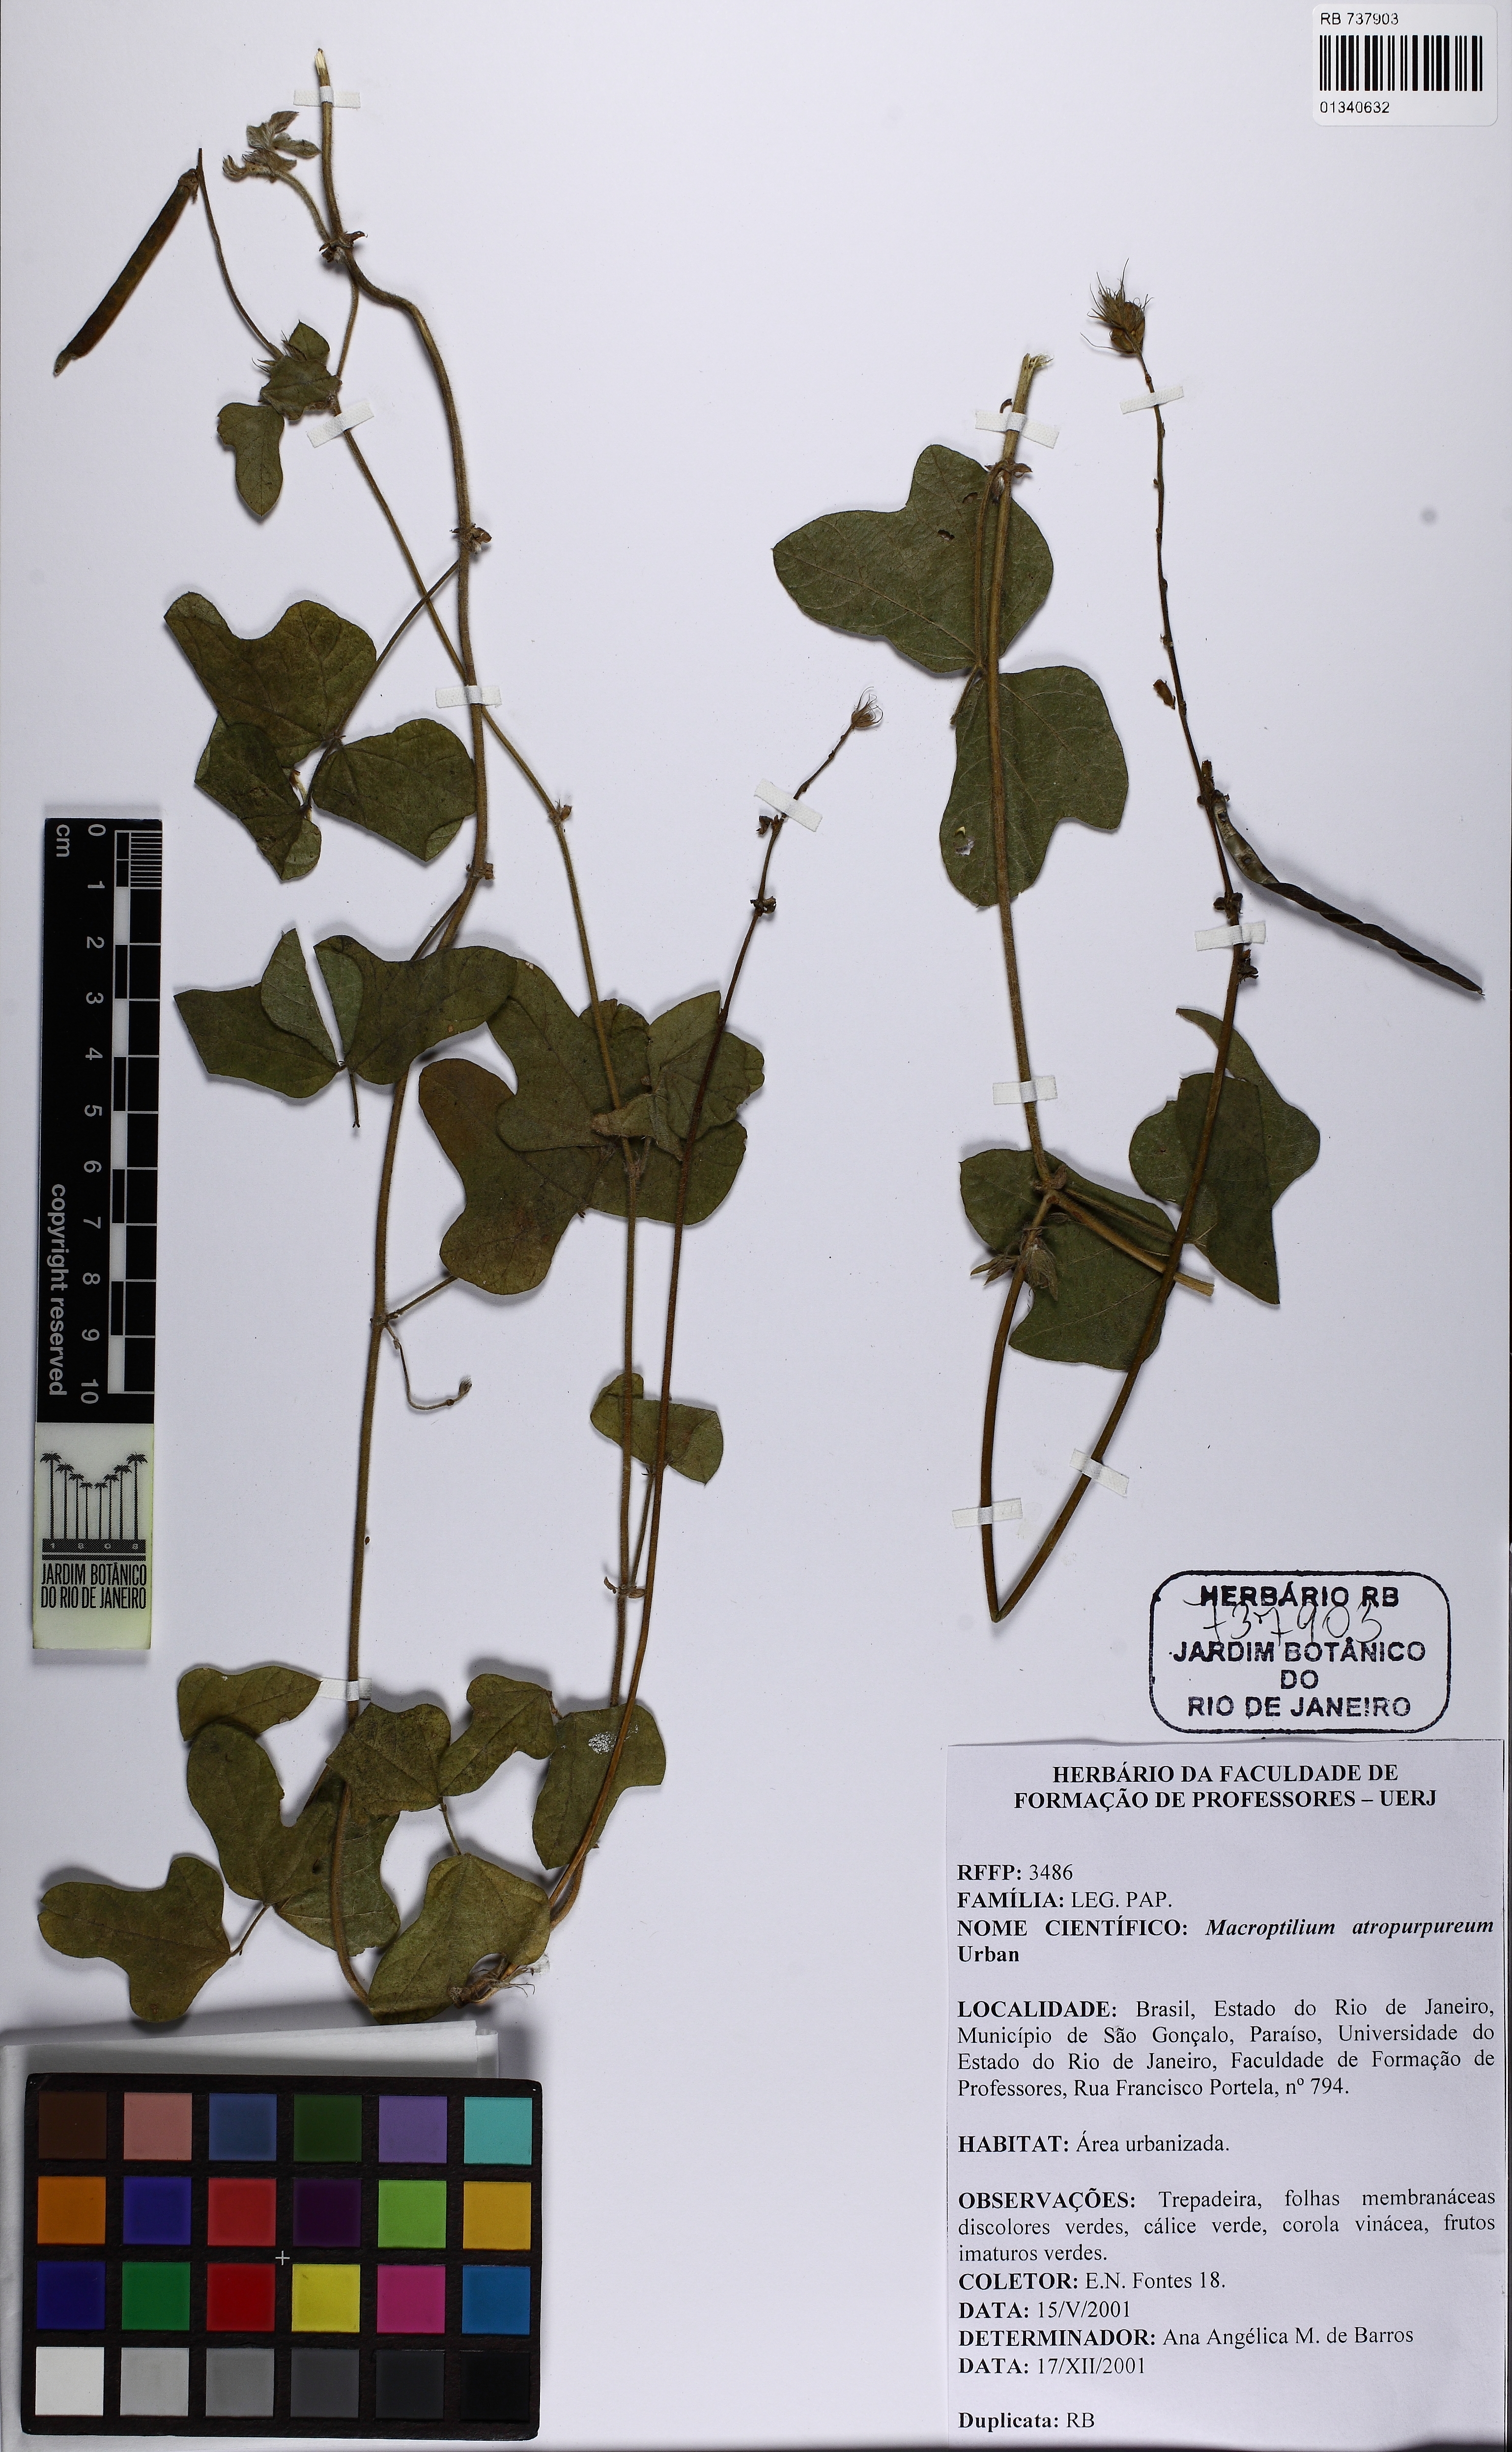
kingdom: Plantae
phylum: Tracheophyta
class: Magnoliopsida
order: Fabales
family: Fabaceae
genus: Macroptilium
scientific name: Macroptilium bracteatum
